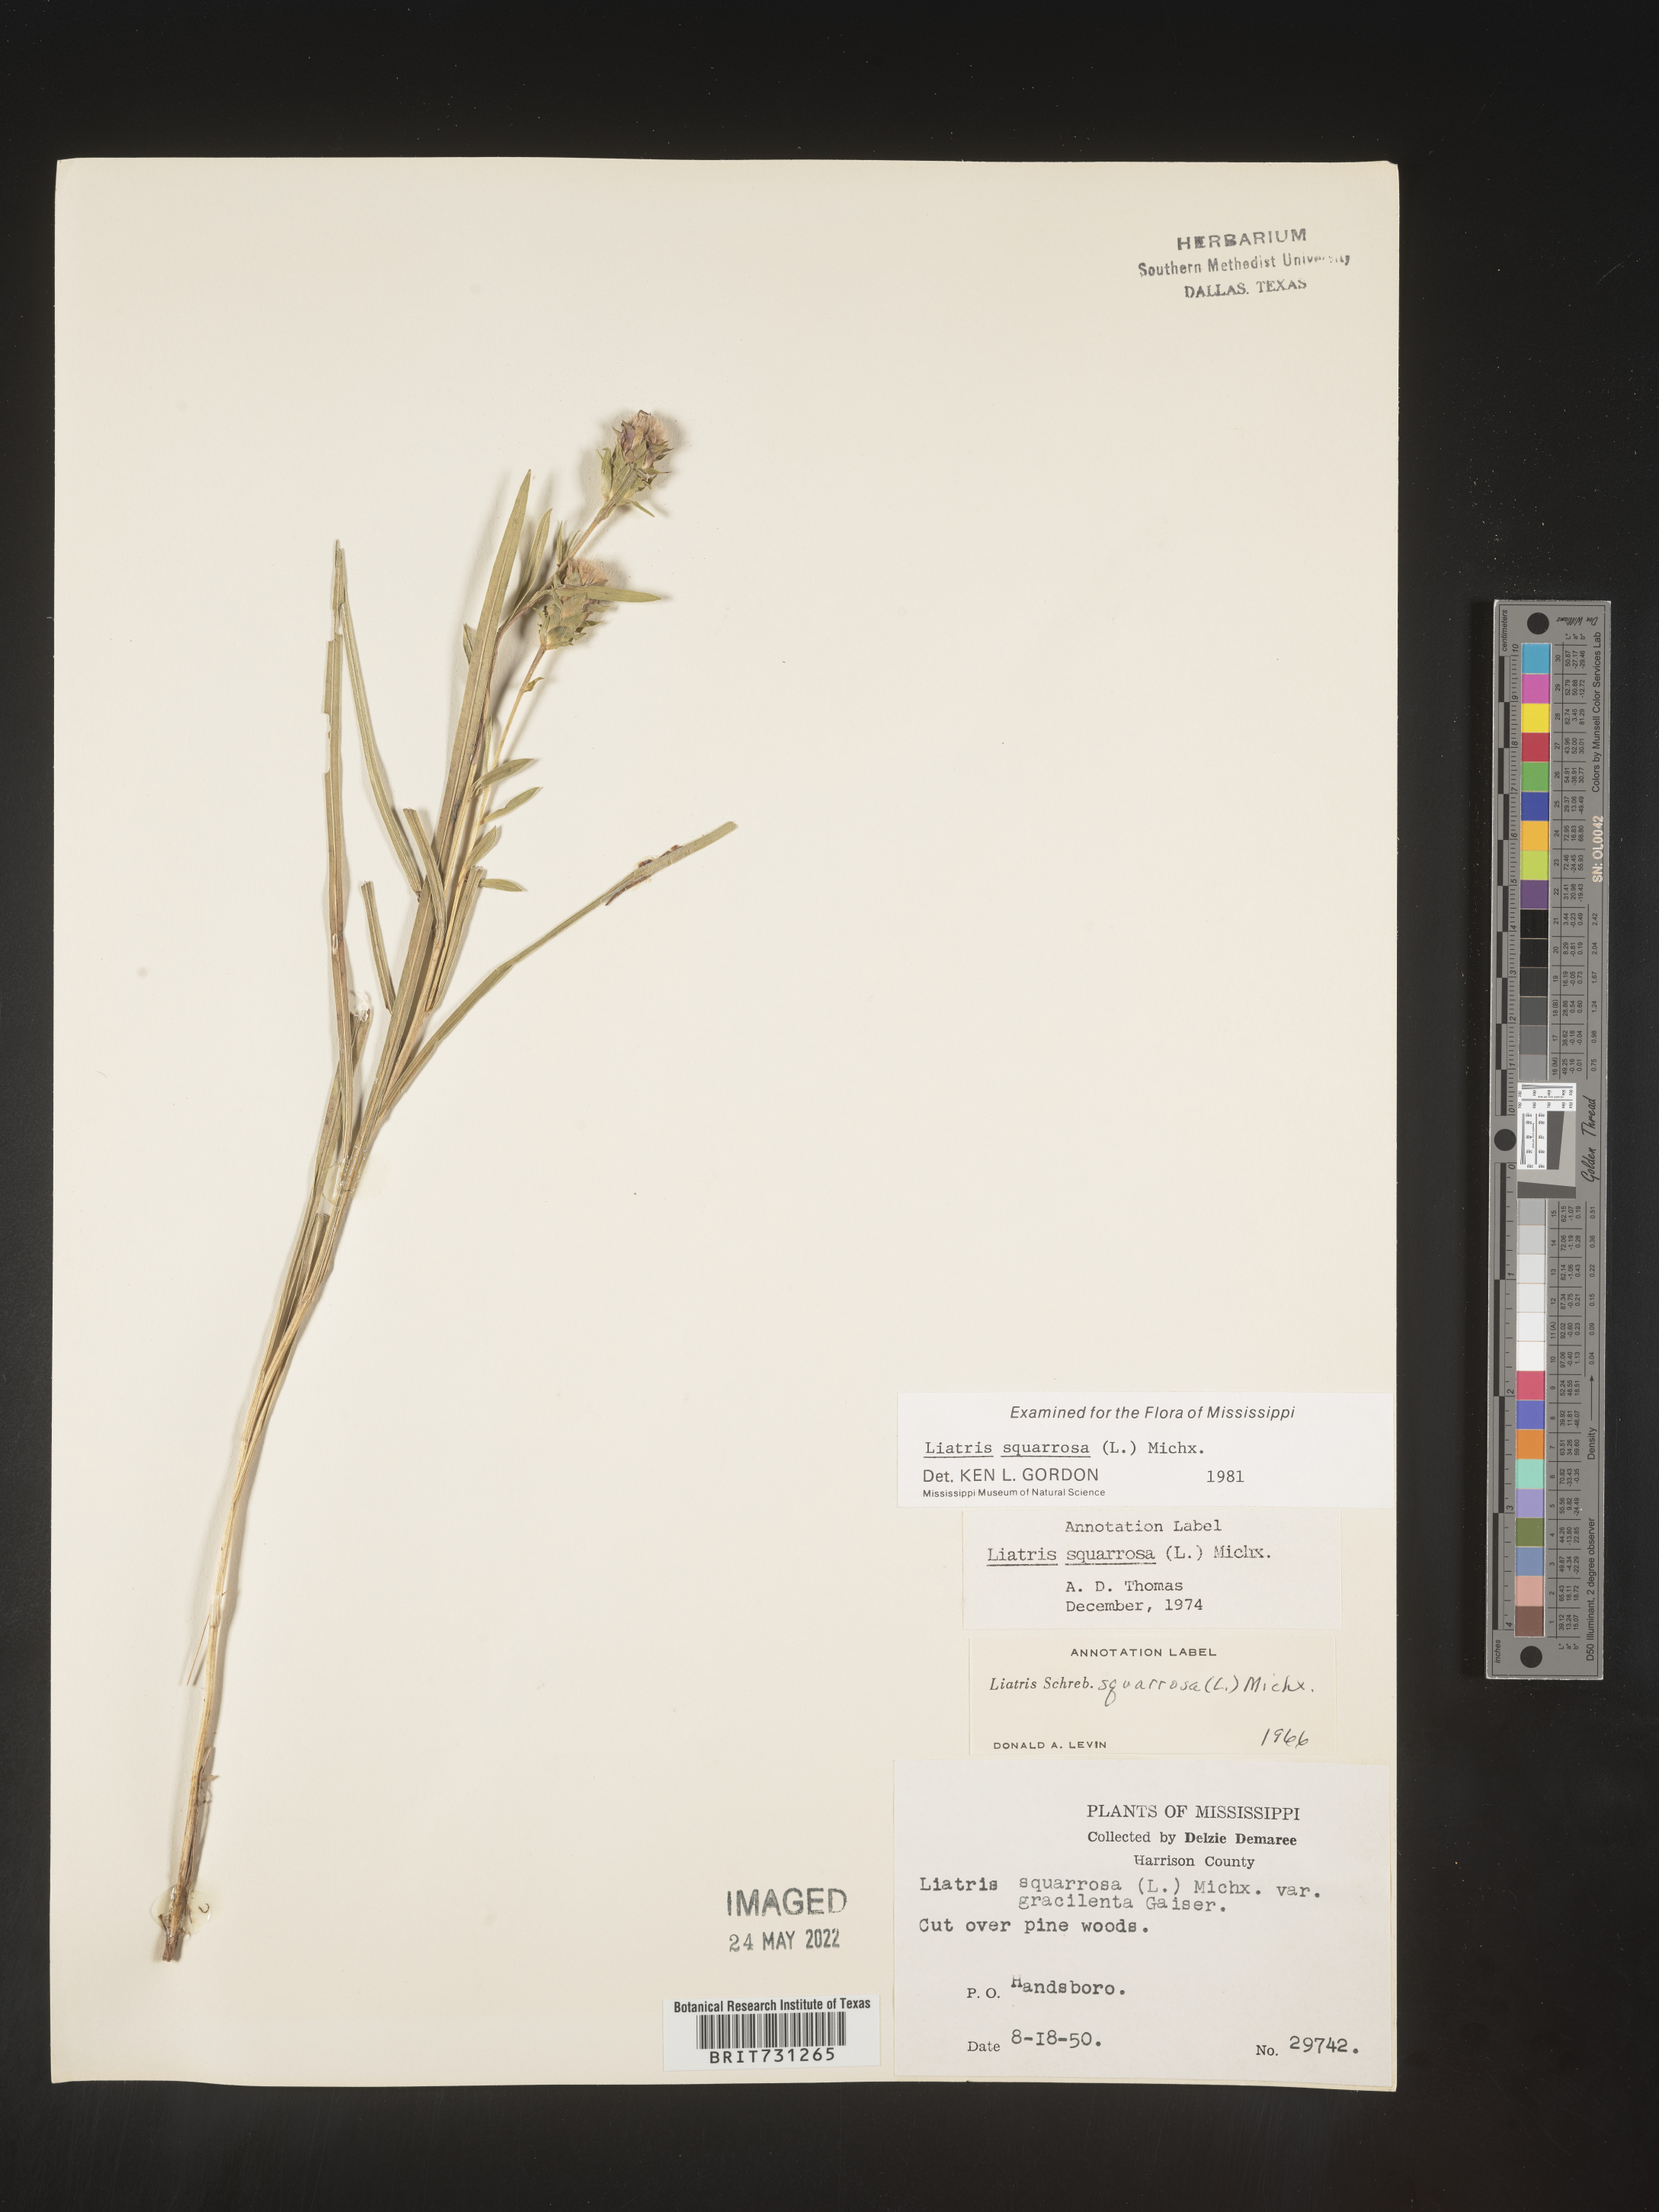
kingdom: Plantae
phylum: Tracheophyta
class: Magnoliopsida
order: Asterales
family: Asteraceae
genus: Liatris
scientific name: Liatris squarrosa
